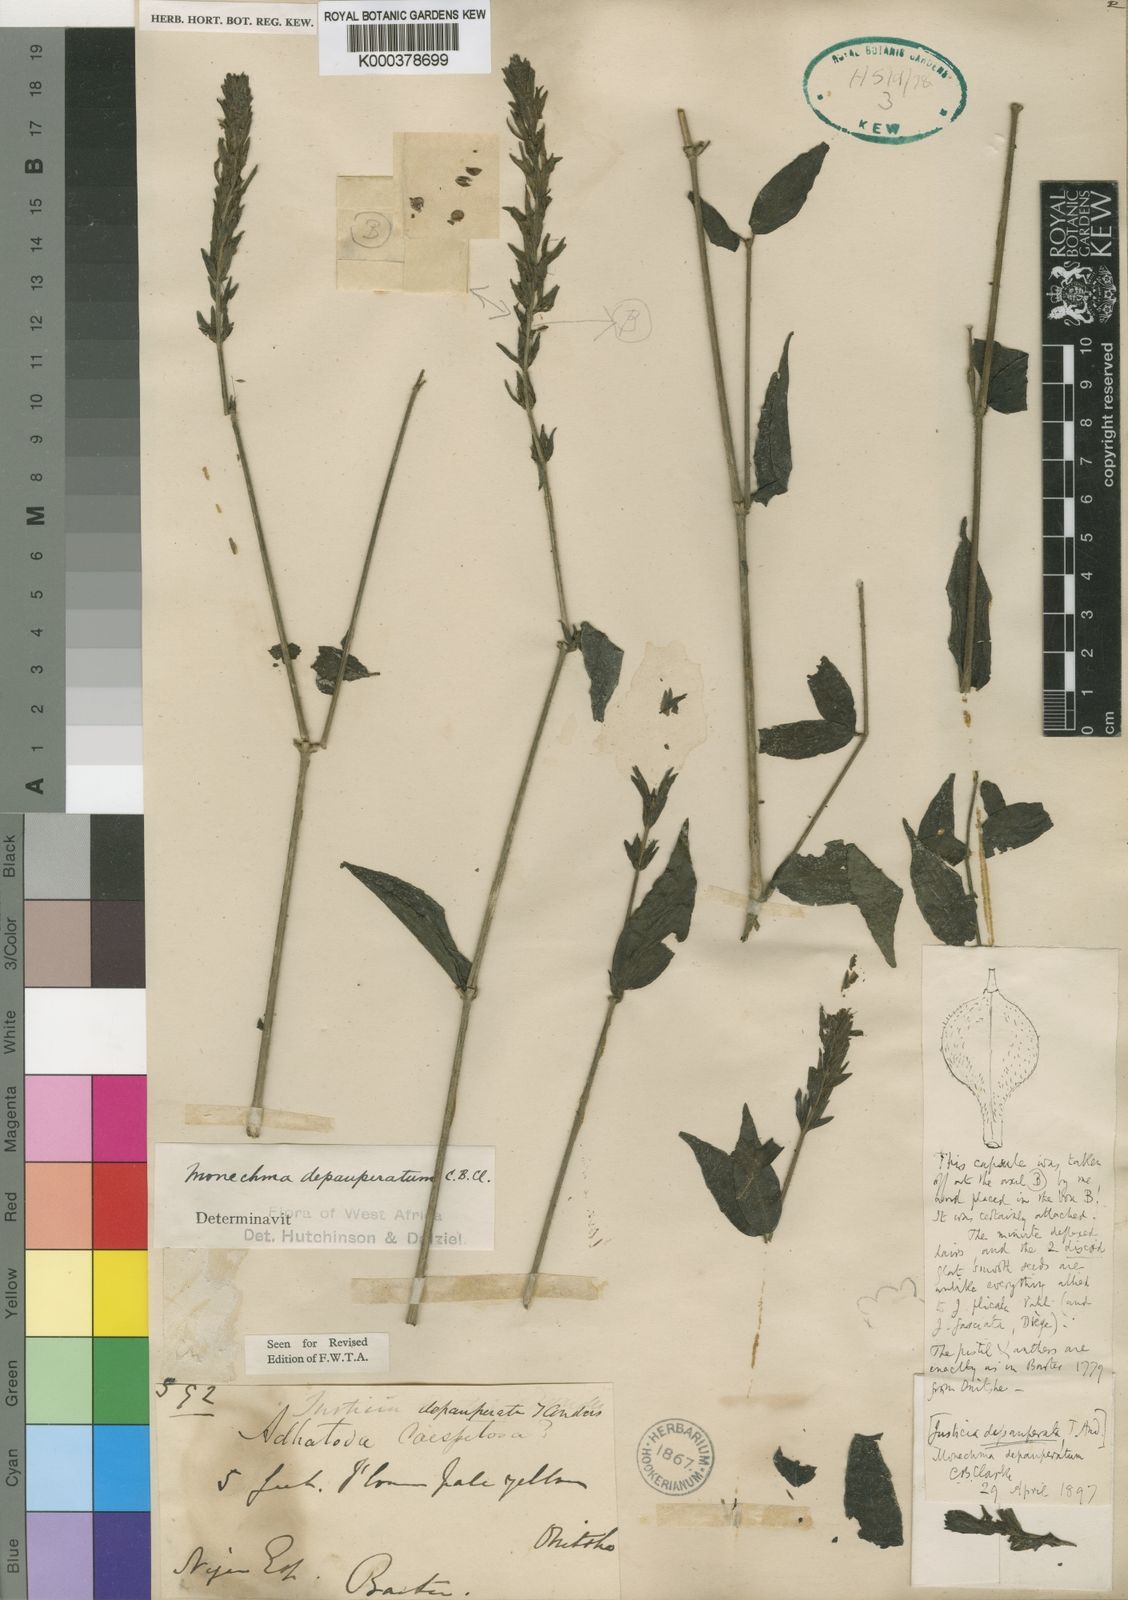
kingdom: Plantae
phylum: Tracheophyta
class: Magnoliopsida
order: Lamiales
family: Acanthaceae
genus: Monechma
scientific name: Monechma depauperatum
